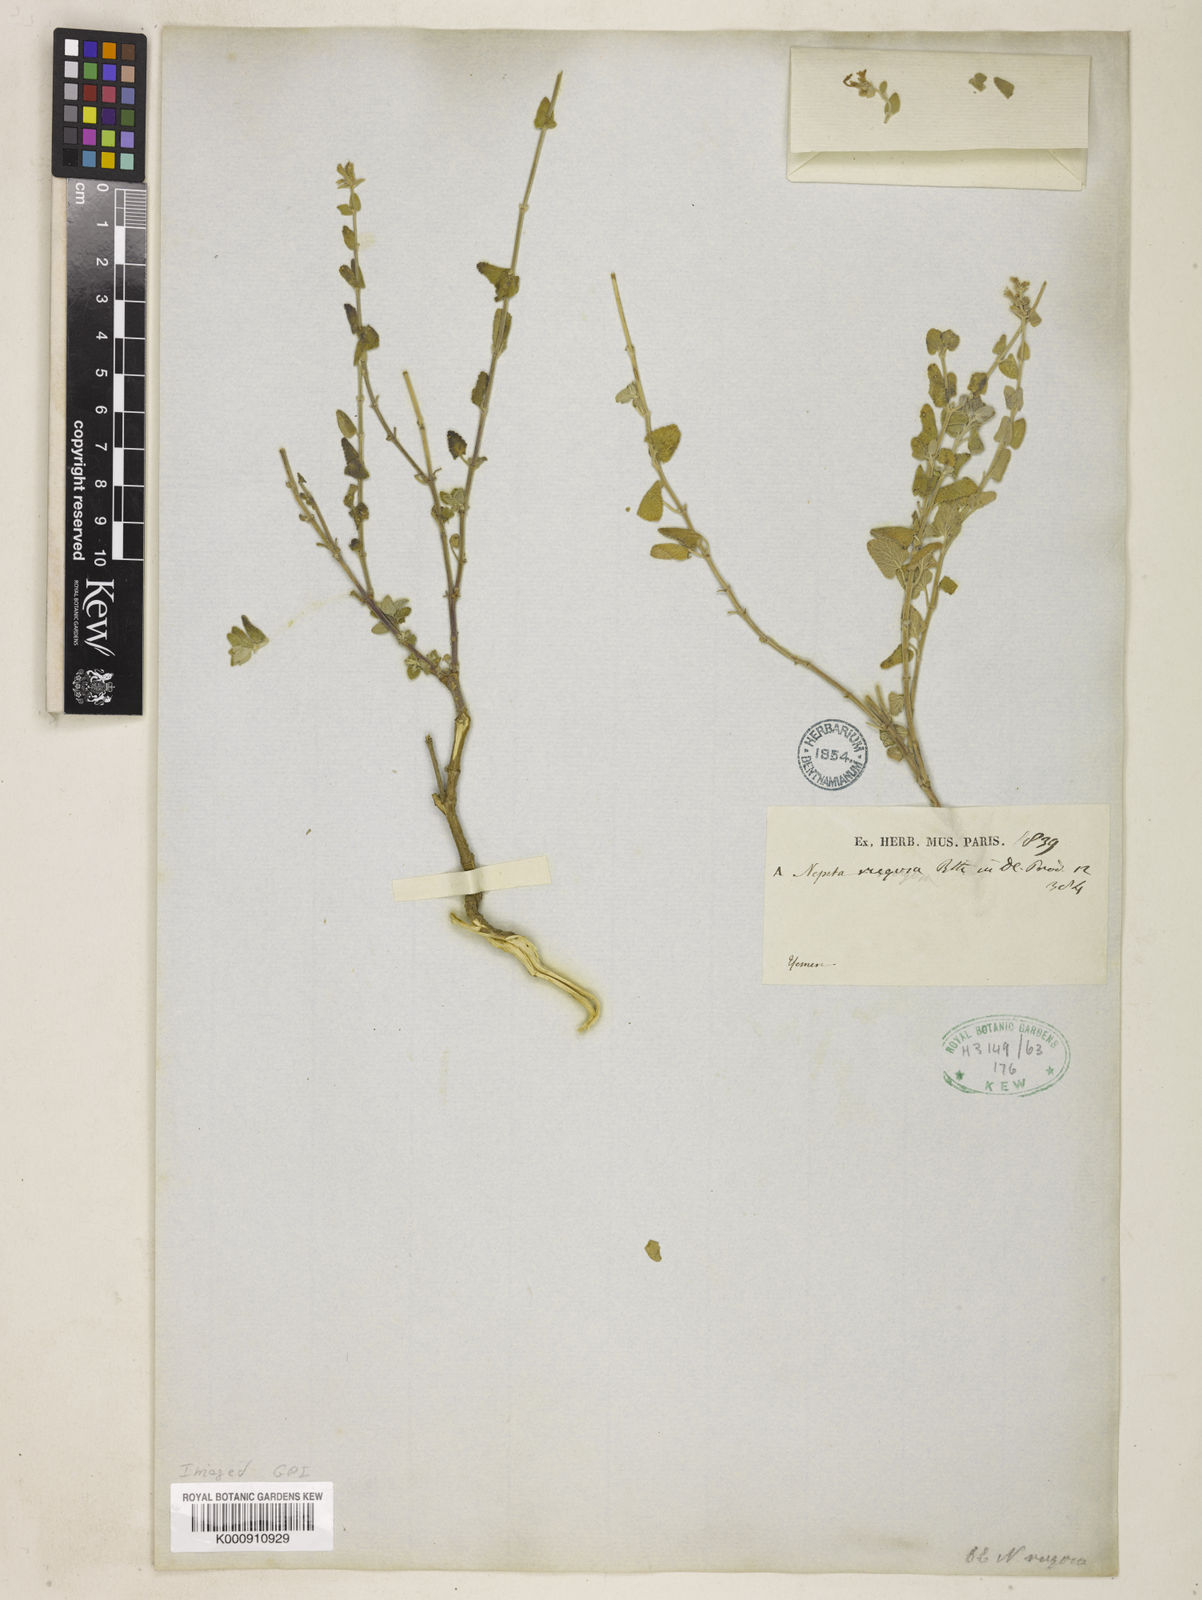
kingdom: Plantae
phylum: Tracheophyta
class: Magnoliopsida
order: Lamiales
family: Lamiaceae
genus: Nepeta
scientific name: Nepeta rugosa
